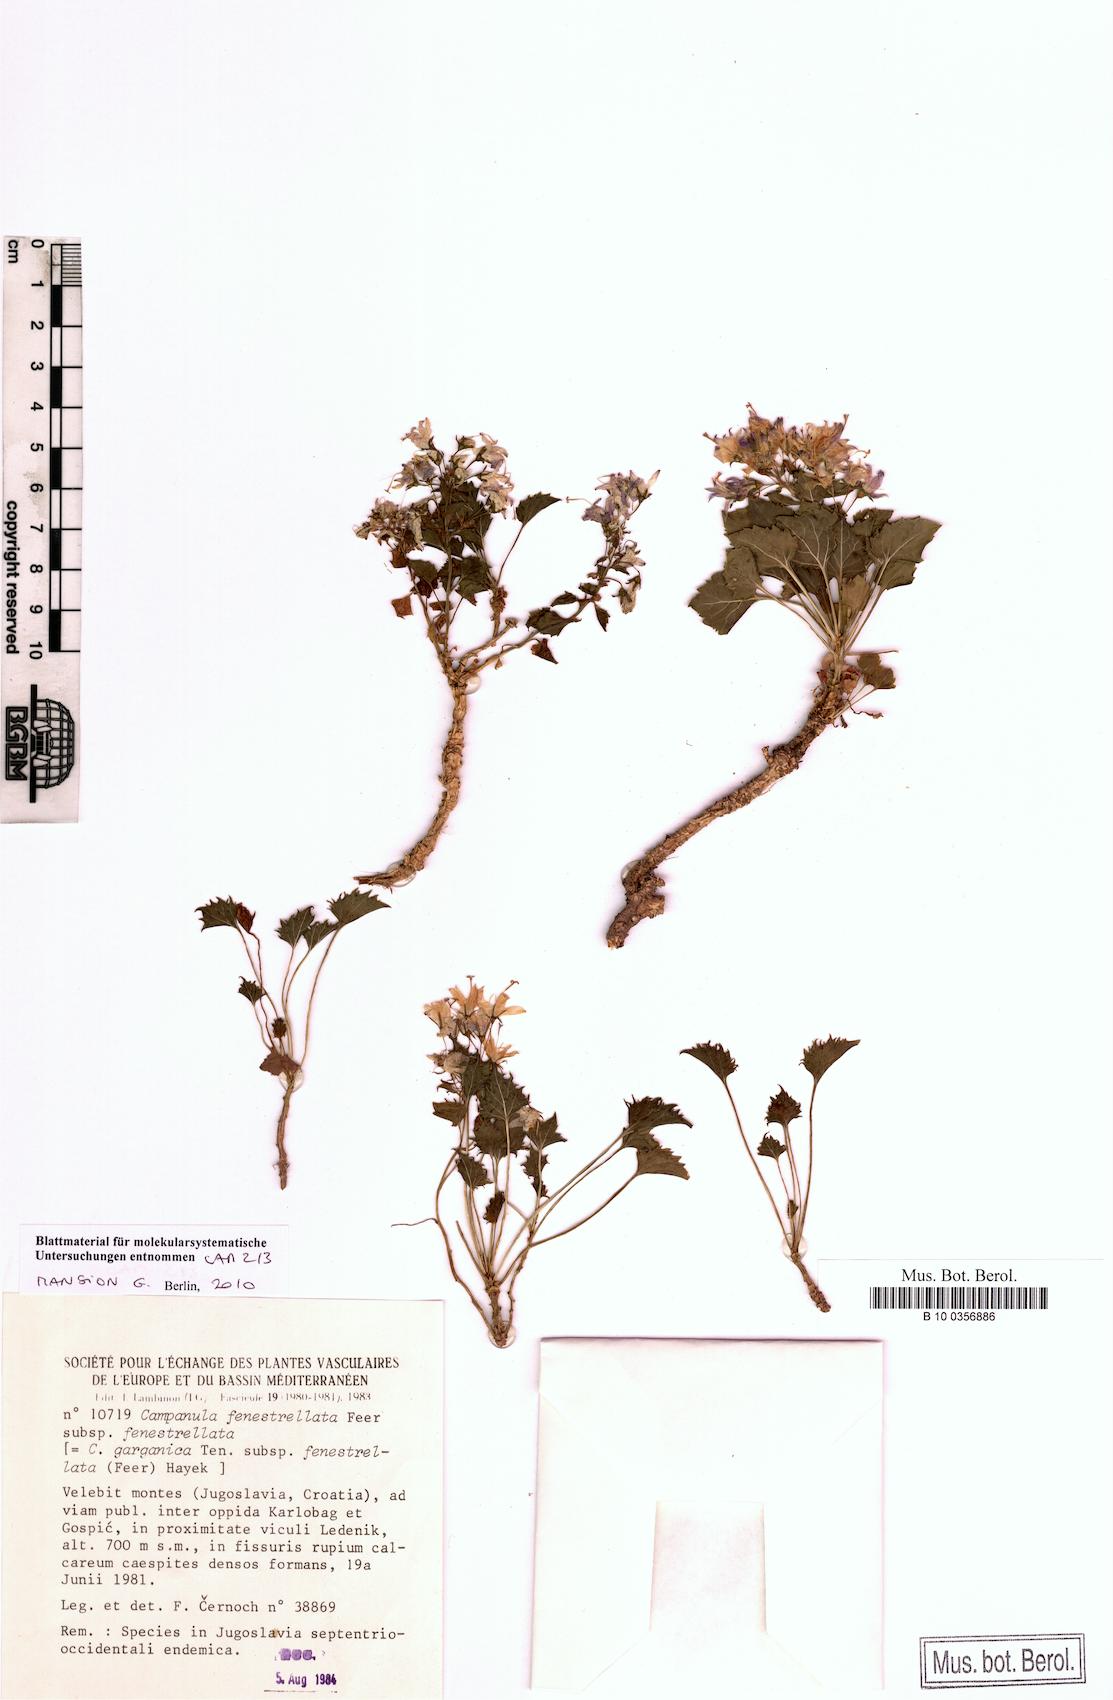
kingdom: Plantae
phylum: Tracheophyta
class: Magnoliopsida
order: Asterales
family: Campanulaceae
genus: Campanula
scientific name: Campanula fenestrellata
